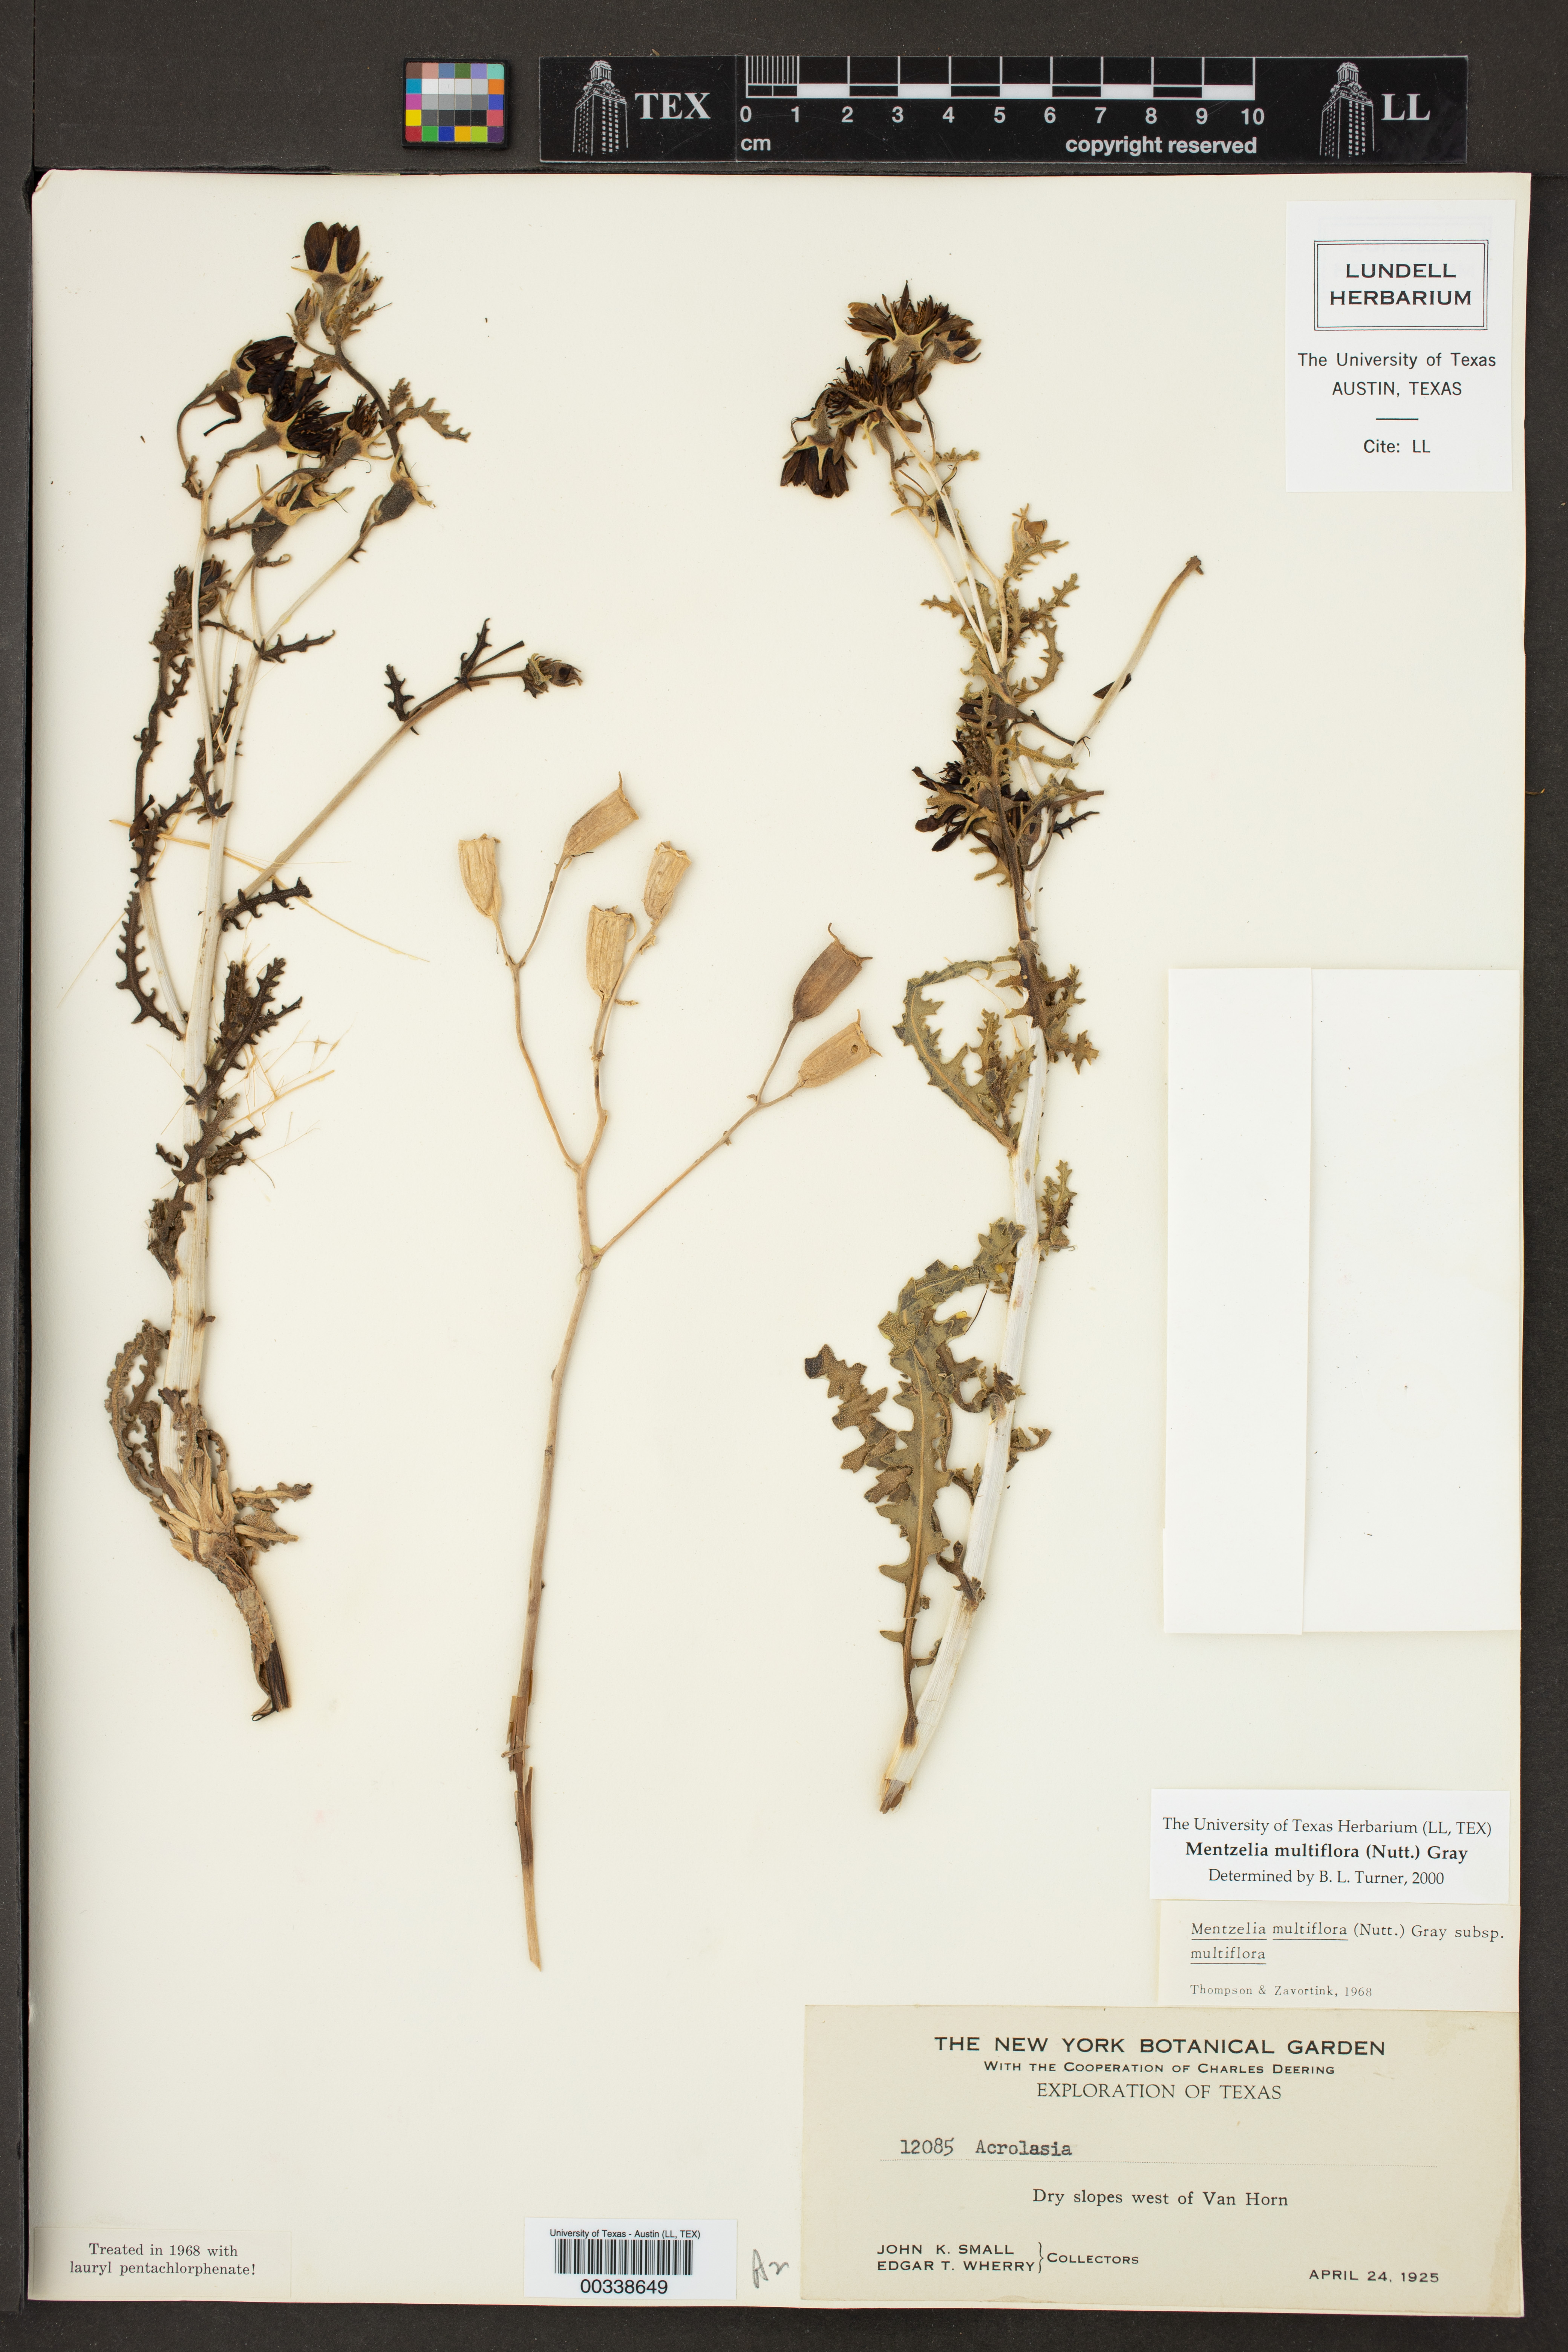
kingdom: Plantae
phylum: Tracheophyta
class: Magnoliopsida
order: Cornales
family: Loasaceae
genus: Mentzelia
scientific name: Mentzelia multiflora
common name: Adonis blazingstar
